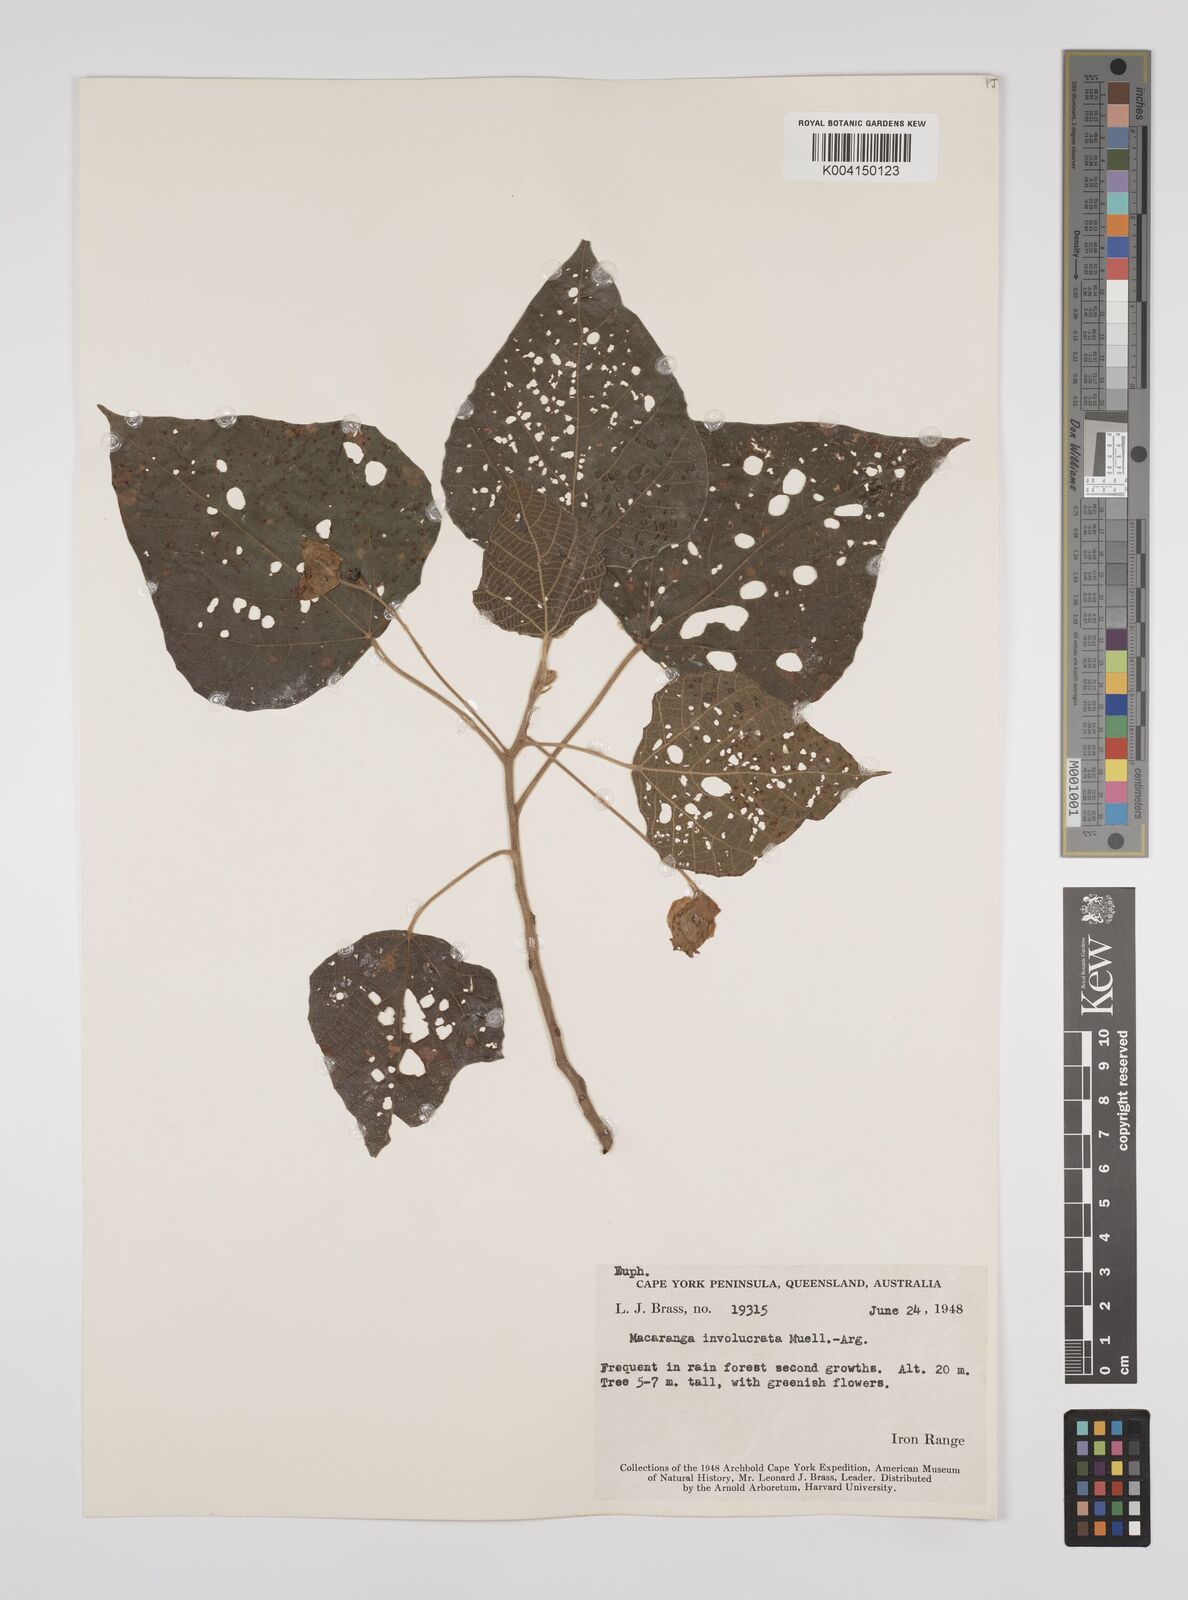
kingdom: Plantae
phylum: Tracheophyta
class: Magnoliopsida
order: Malpighiales
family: Euphorbiaceae
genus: Macaranga
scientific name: Macaranga involucrata
